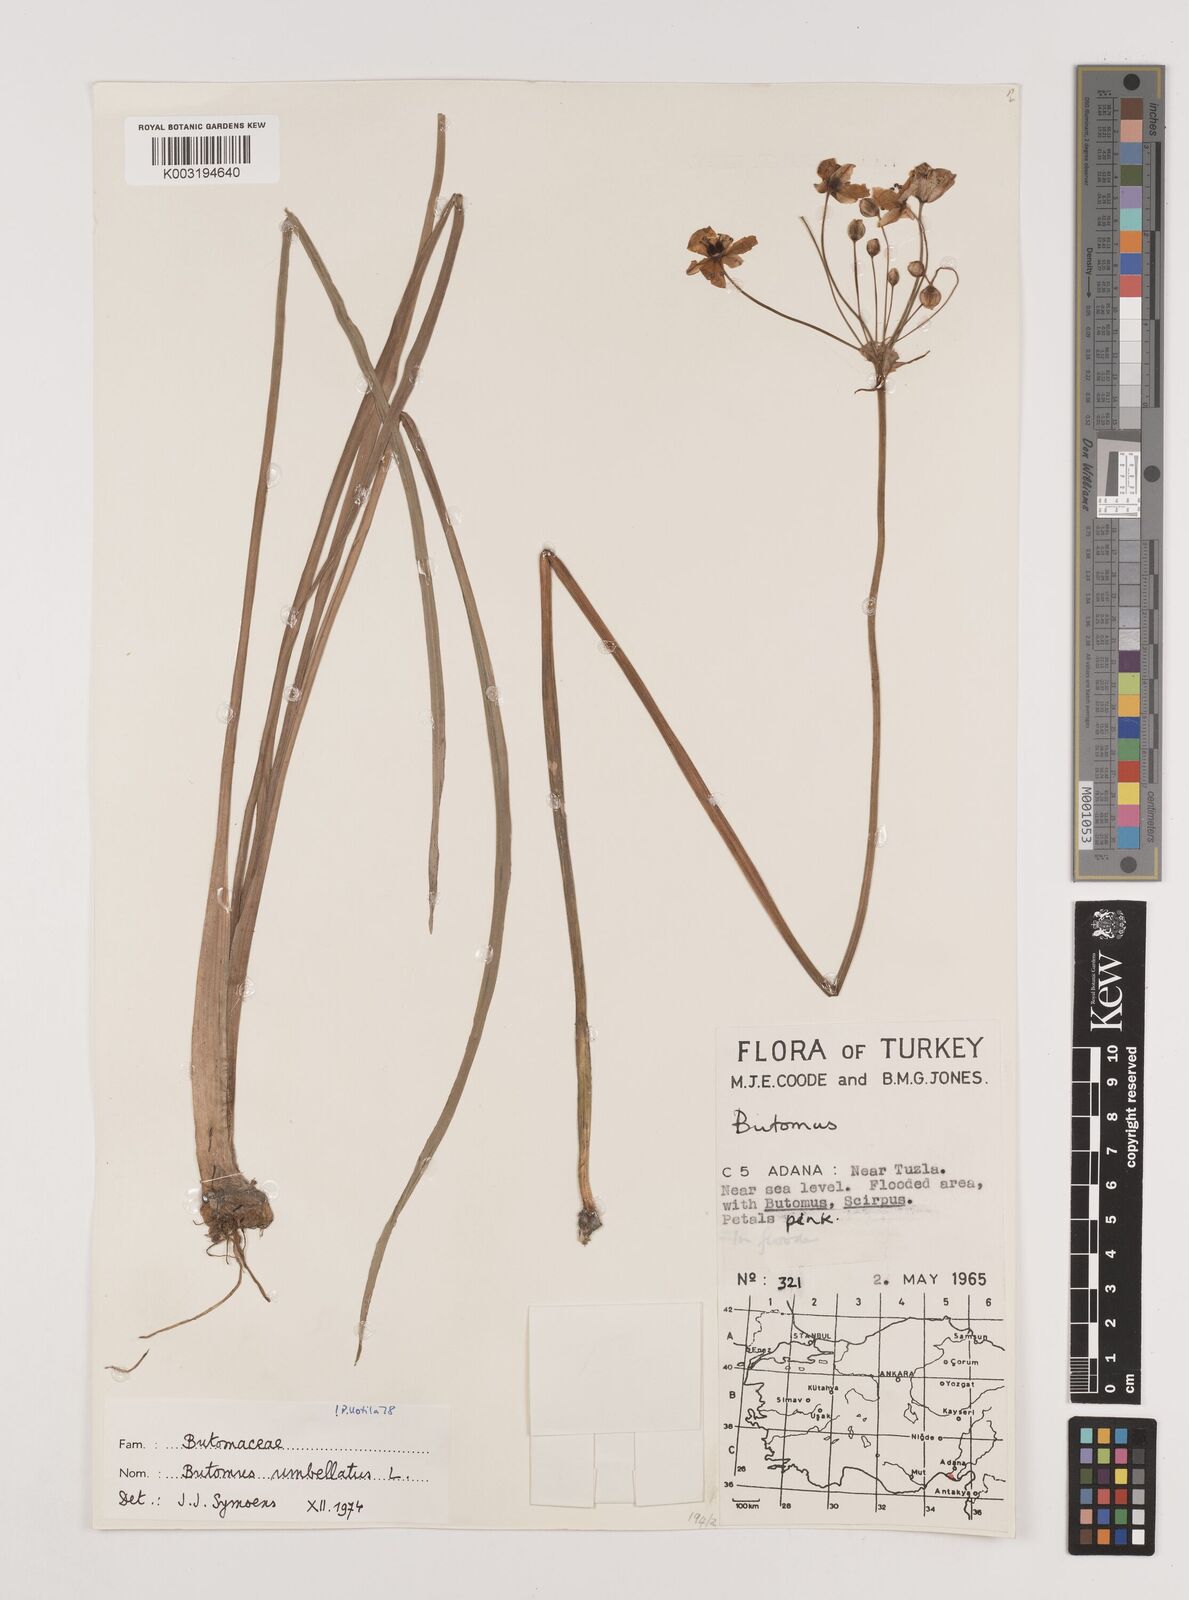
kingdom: Plantae
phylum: Tracheophyta
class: Liliopsida
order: Alismatales
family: Butomaceae
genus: Butomus
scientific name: Butomus umbellatus
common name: Flowering-rush
